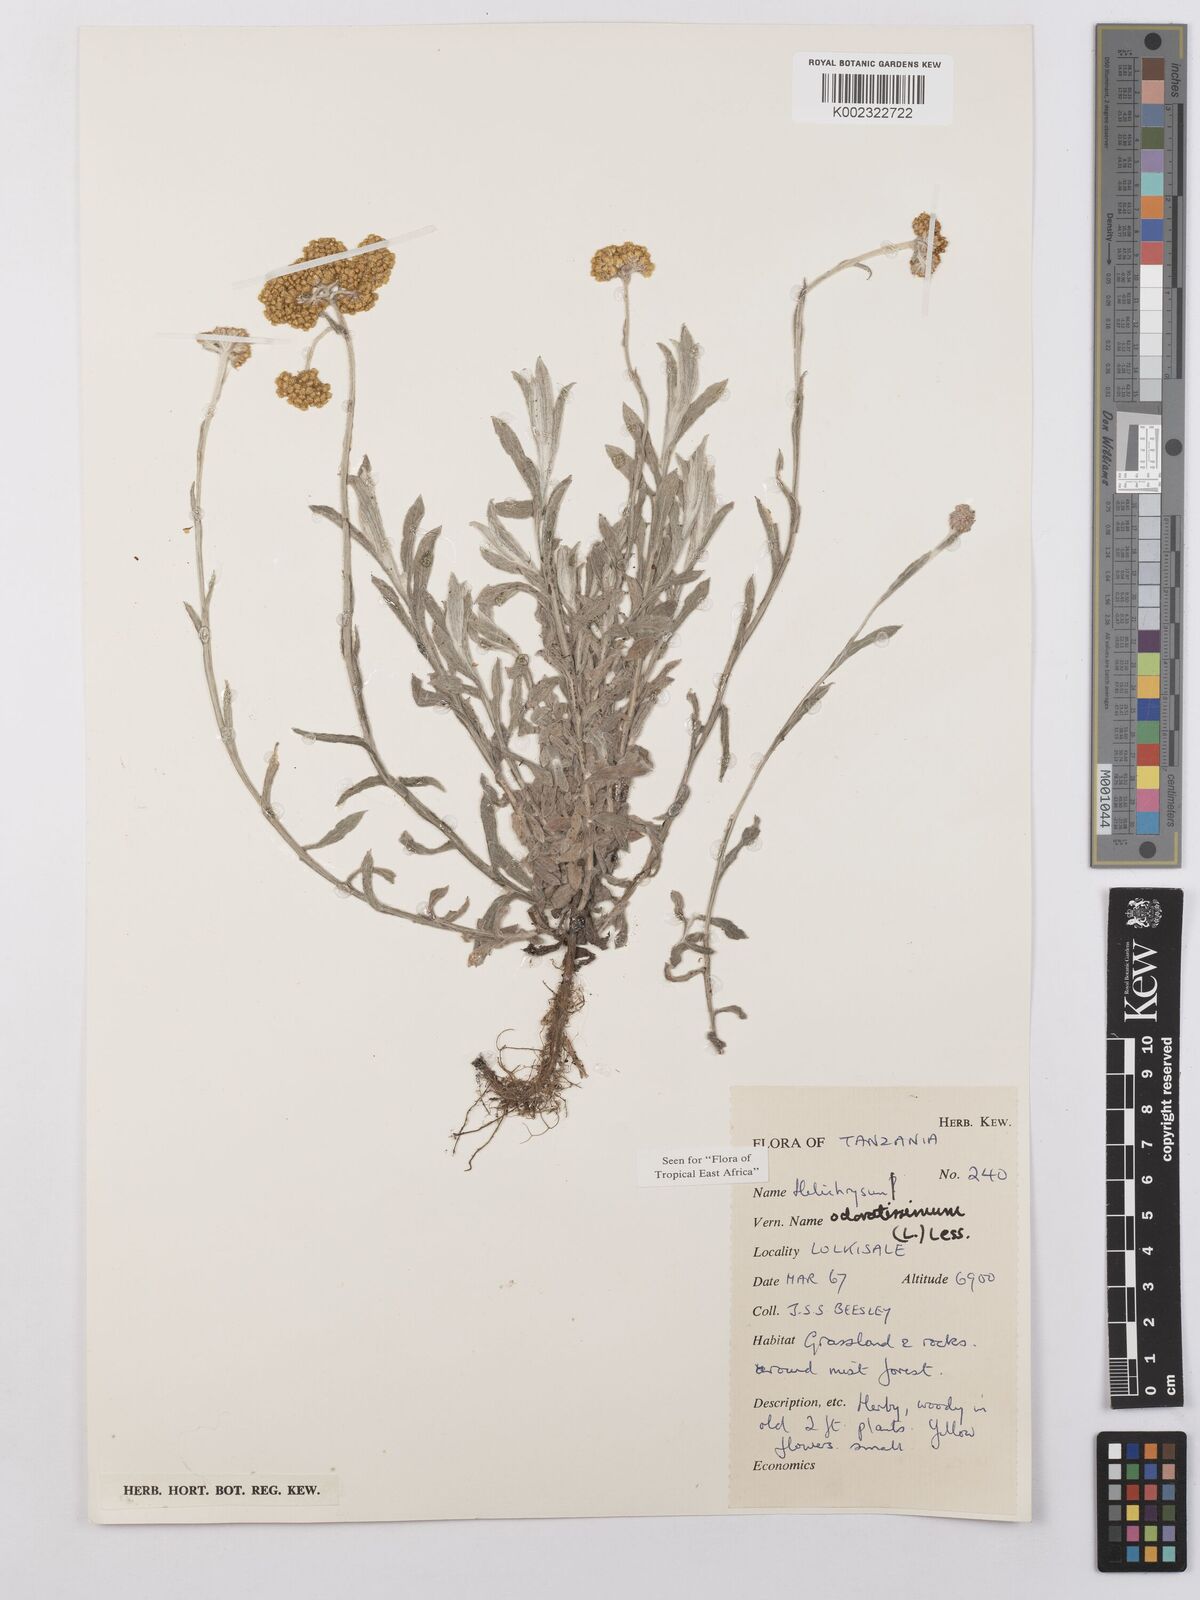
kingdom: Plantae
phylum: Tracheophyta
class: Magnoliopsida
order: Asterales
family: Asteraceae
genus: Helichrysum
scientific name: Helichrysum odoratissimum
